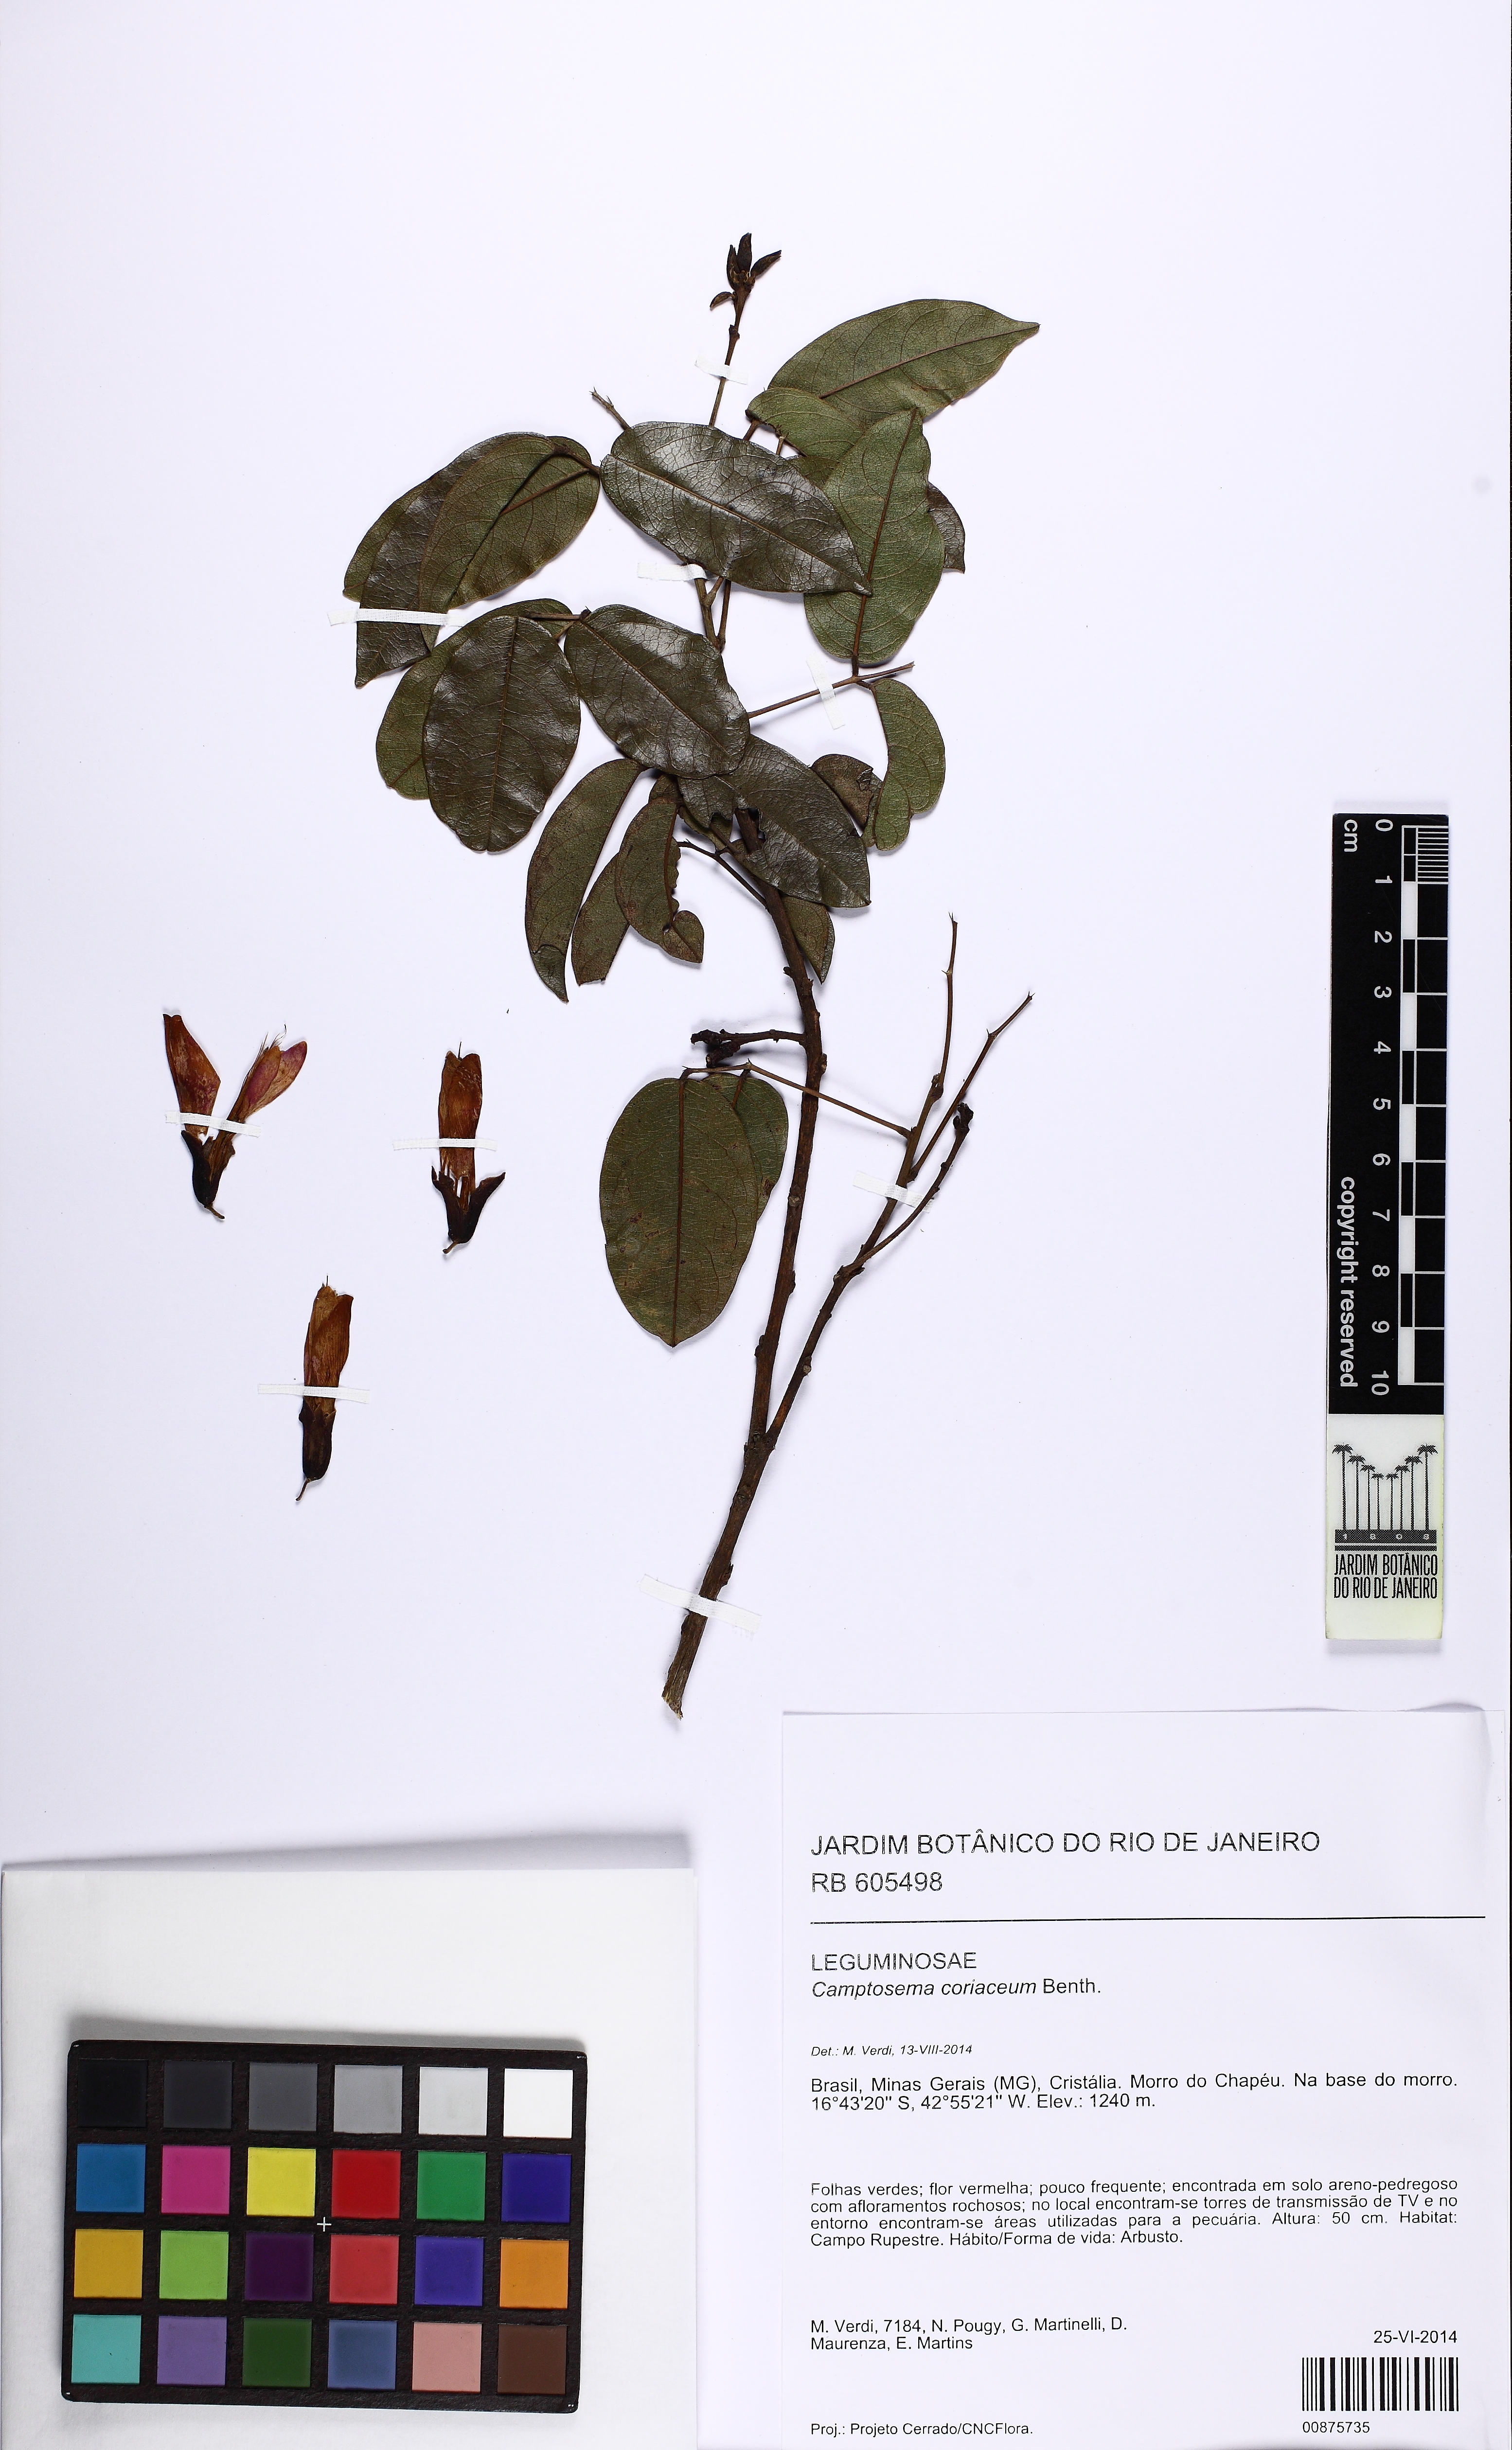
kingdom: Plantae
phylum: Tracheophyta
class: Magnoliopsida
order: Fabales
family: Fabaceae
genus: Camptosema
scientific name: Camptosema coriaceum
